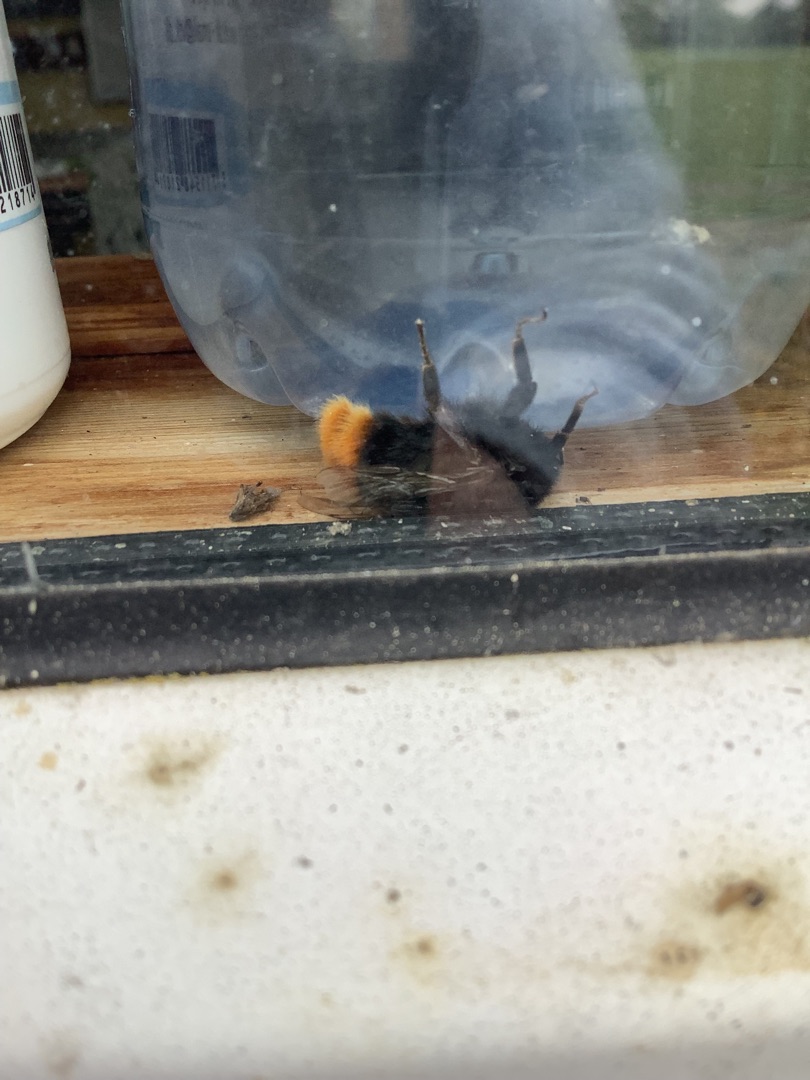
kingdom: Animalia
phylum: Arthropoda
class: Insecta
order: Hymenoptera
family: Apidae
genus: Bombus
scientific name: Bombus lapidarius
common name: Stenhumle
